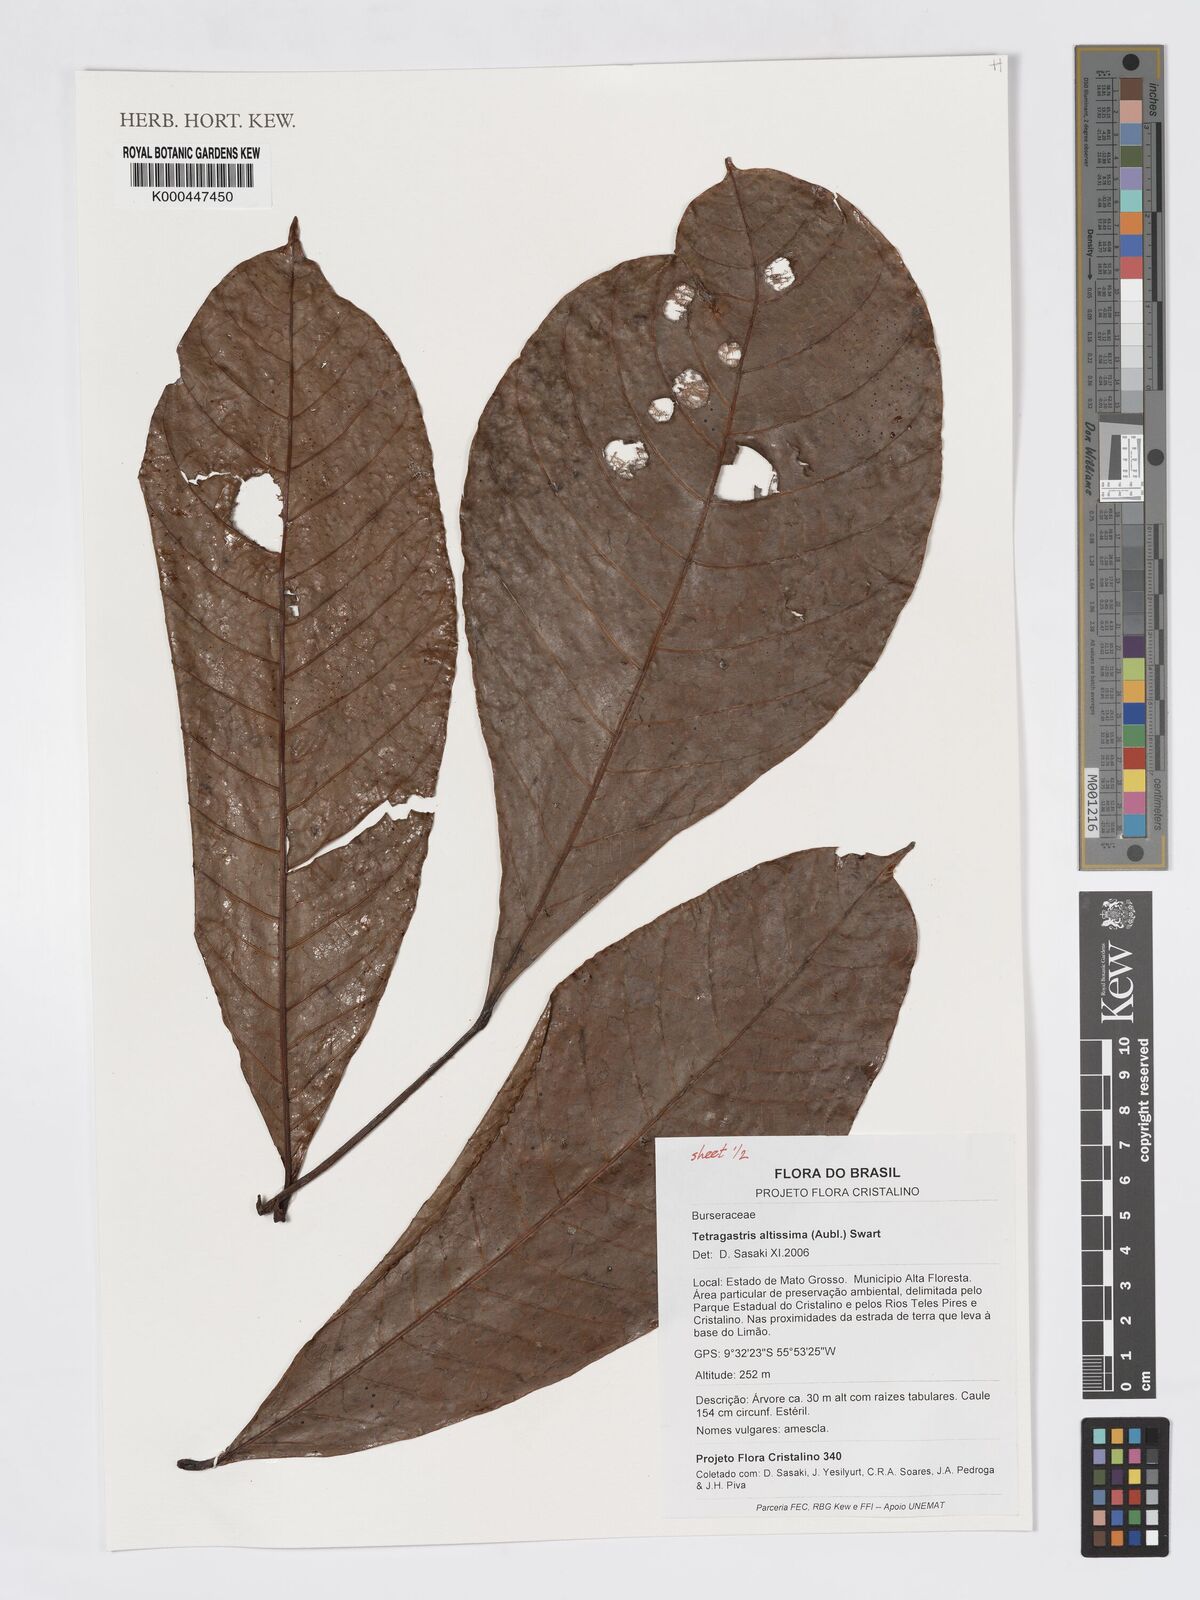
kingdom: Plantae
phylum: Tracheophyta
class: Magnoliopsida
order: Sapindales
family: Burseraceae
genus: Tetragastris
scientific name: Tetragastris altissima
